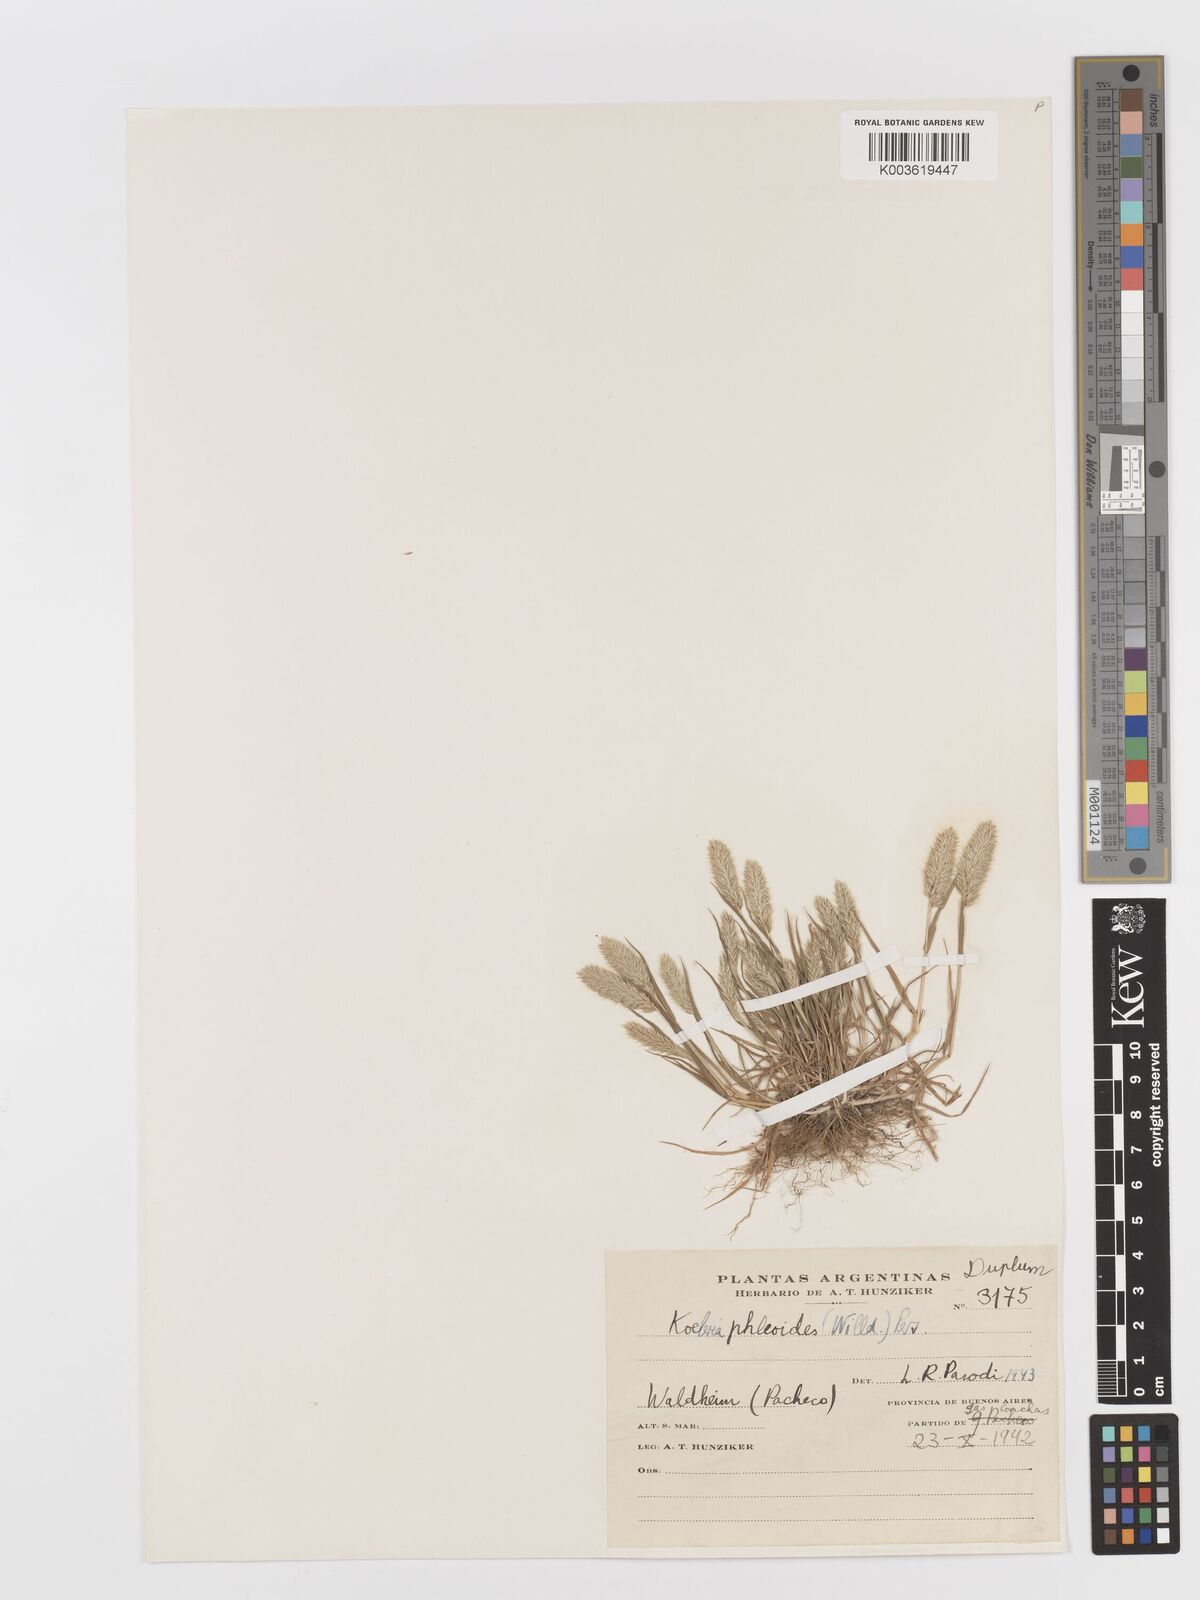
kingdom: Plantae
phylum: Tracheophyta
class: Liliopsida
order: Poales
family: Poaceae
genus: Rostraria
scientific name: Rostraria cristata
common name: Mediterranean hair-grass
